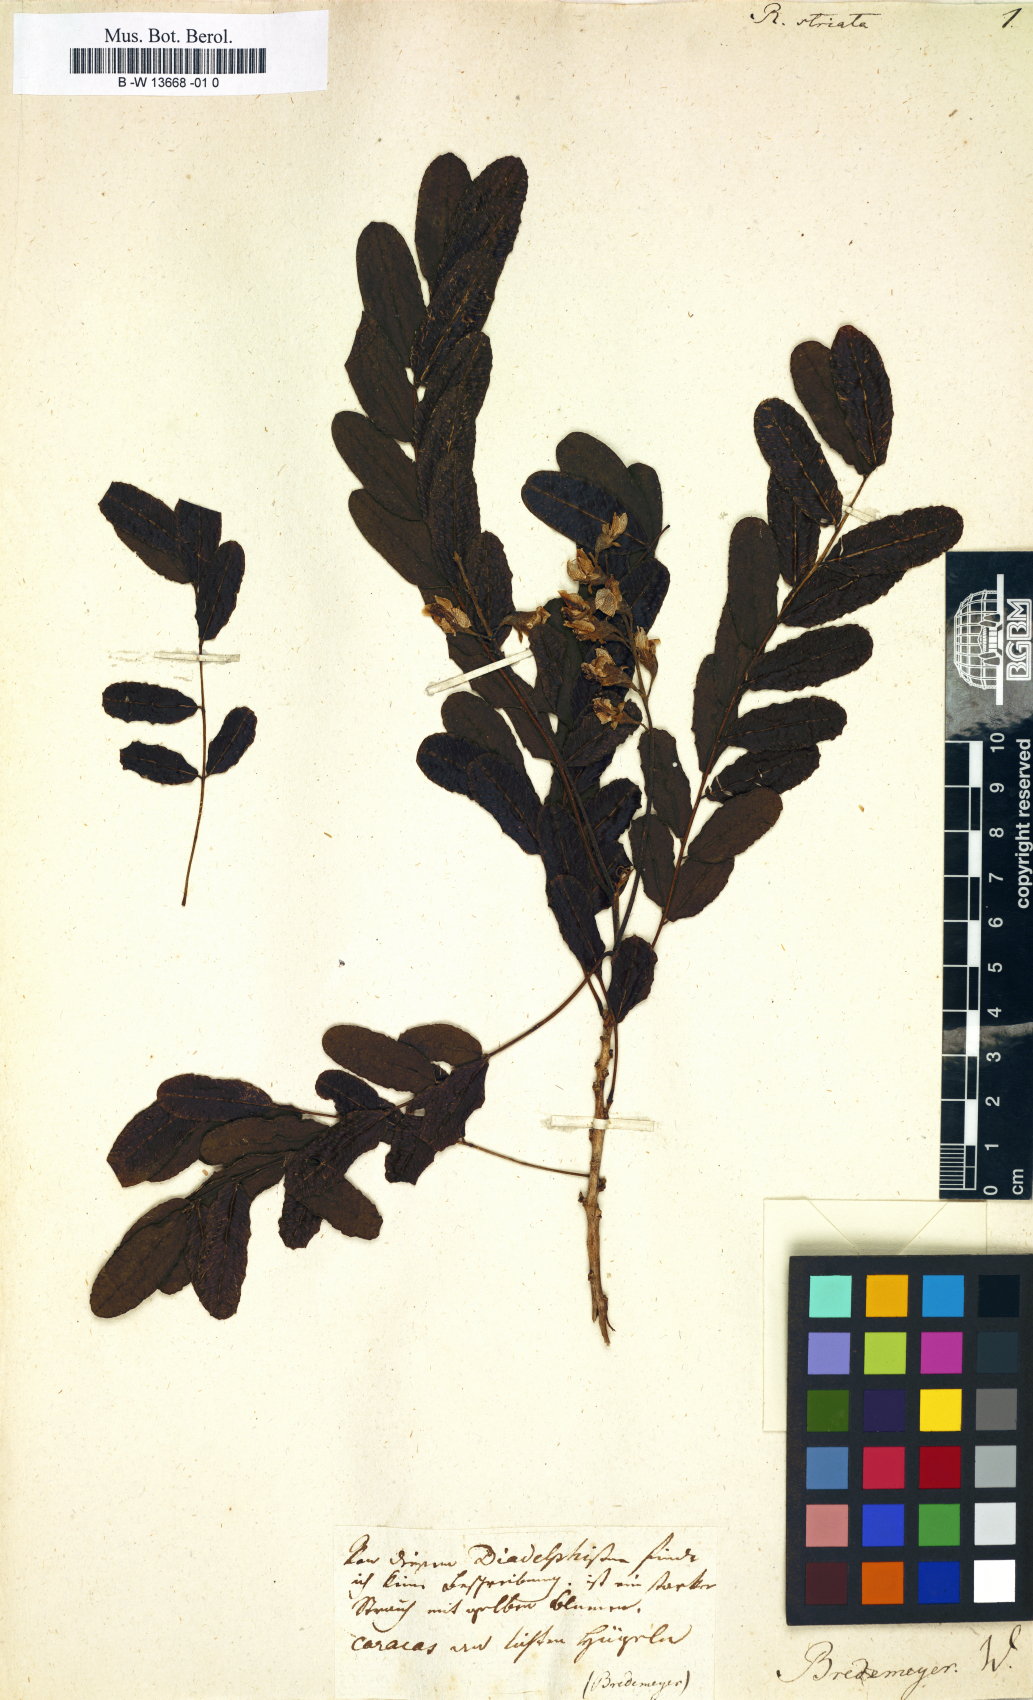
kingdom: Plantae
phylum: Tracheophyta
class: Magnoliopsida
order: Fabales
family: Fabaceae
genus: Geoffroea
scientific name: Geoffroea spinosa
